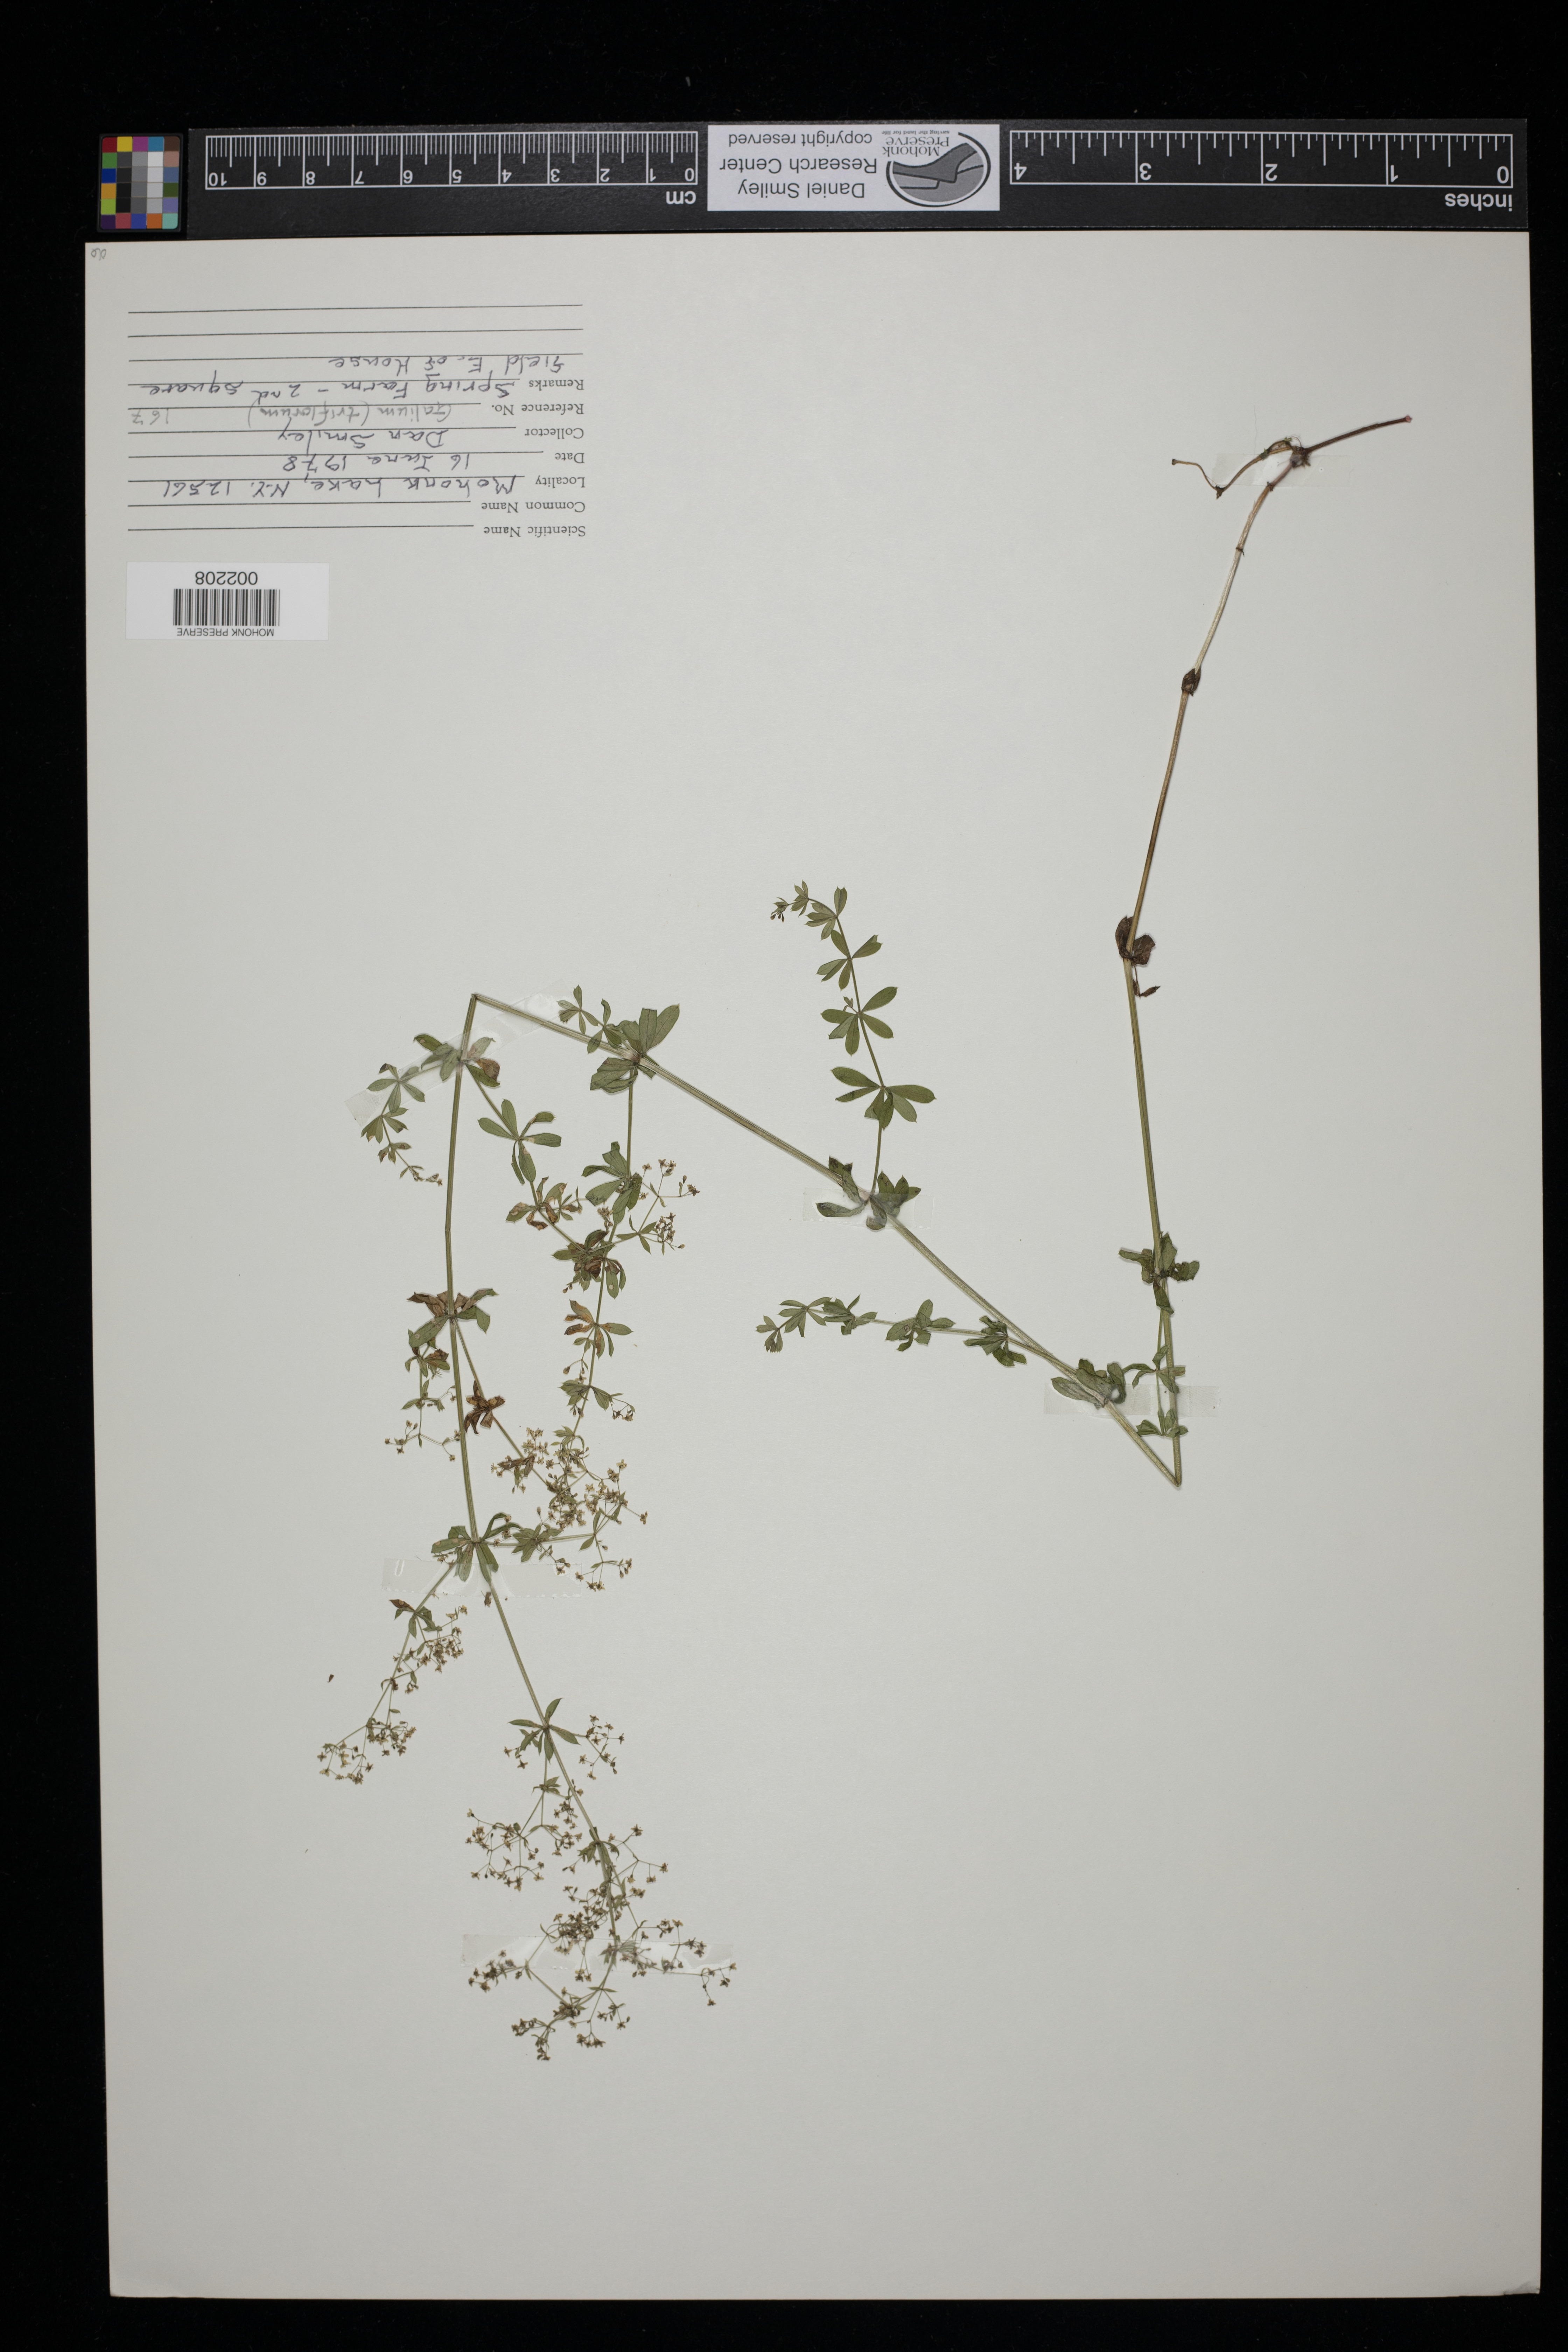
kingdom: Plantae
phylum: Tracheophyta
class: Magnoliopsida
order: Gentianales
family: Rubiaceae
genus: Galium
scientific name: Galium triflorum
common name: Fragrant bedstraw
